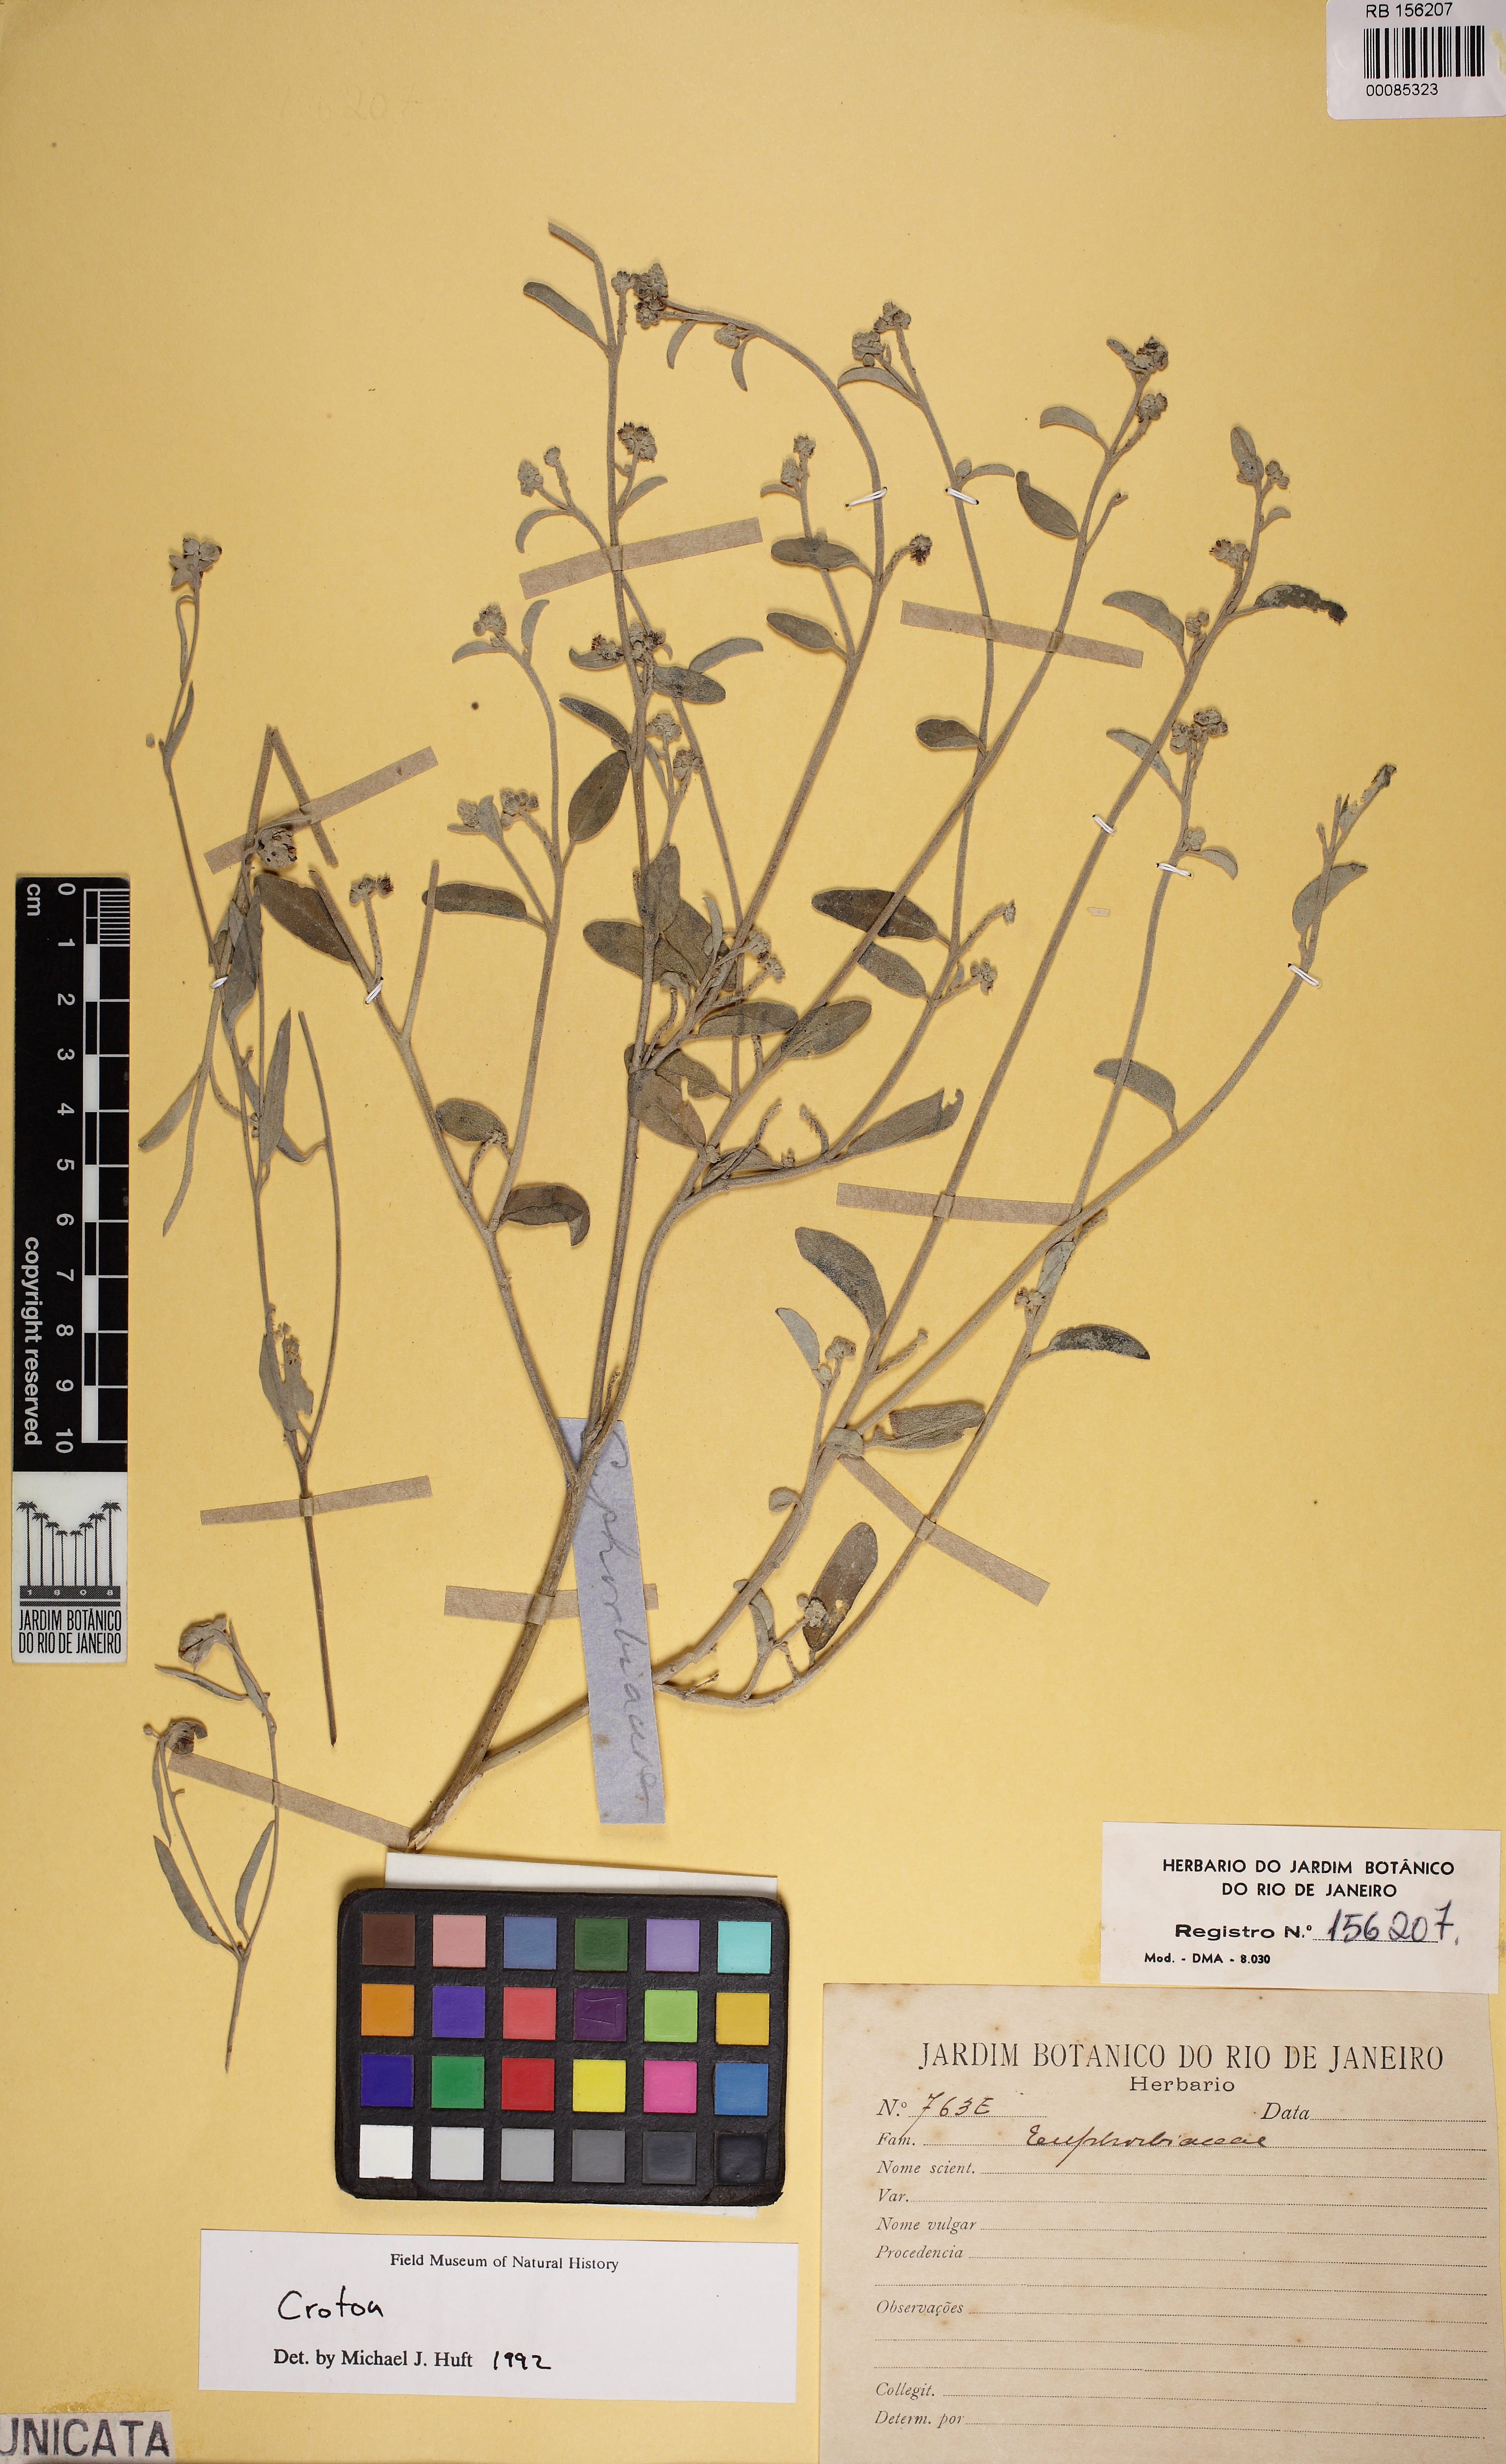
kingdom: Plantae
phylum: Tracheophyta
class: Magnoliopsida
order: Malpighiales
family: Euphorbiaceae
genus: Croton
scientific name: Croton pedicellatus
